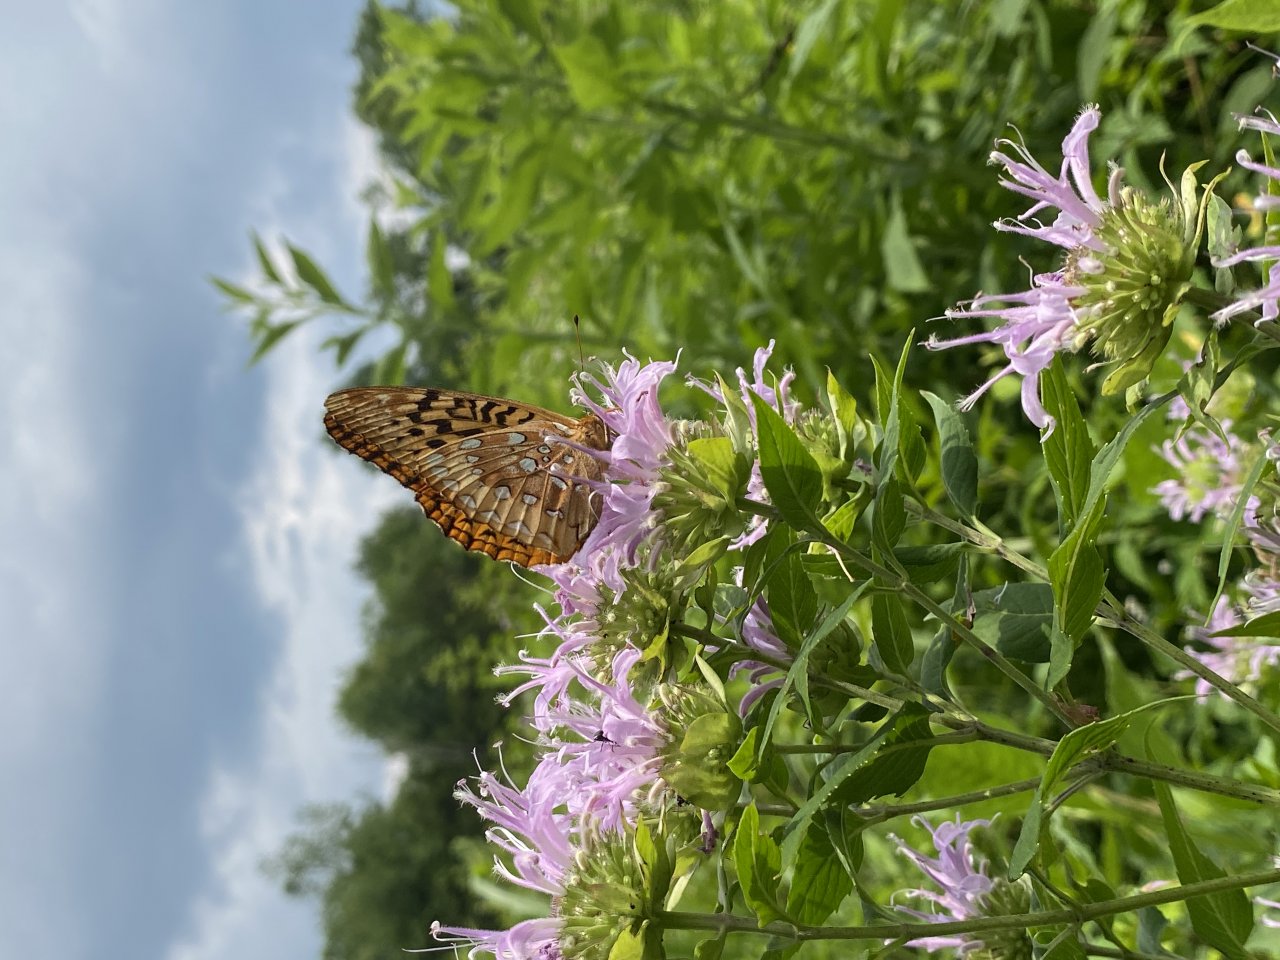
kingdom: Animalia
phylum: Arthropoda
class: Insecta
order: Lepidoptera
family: Nymphalidae
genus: Speyeria
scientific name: Speyeria cybele
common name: Great Spangled Fritillary
